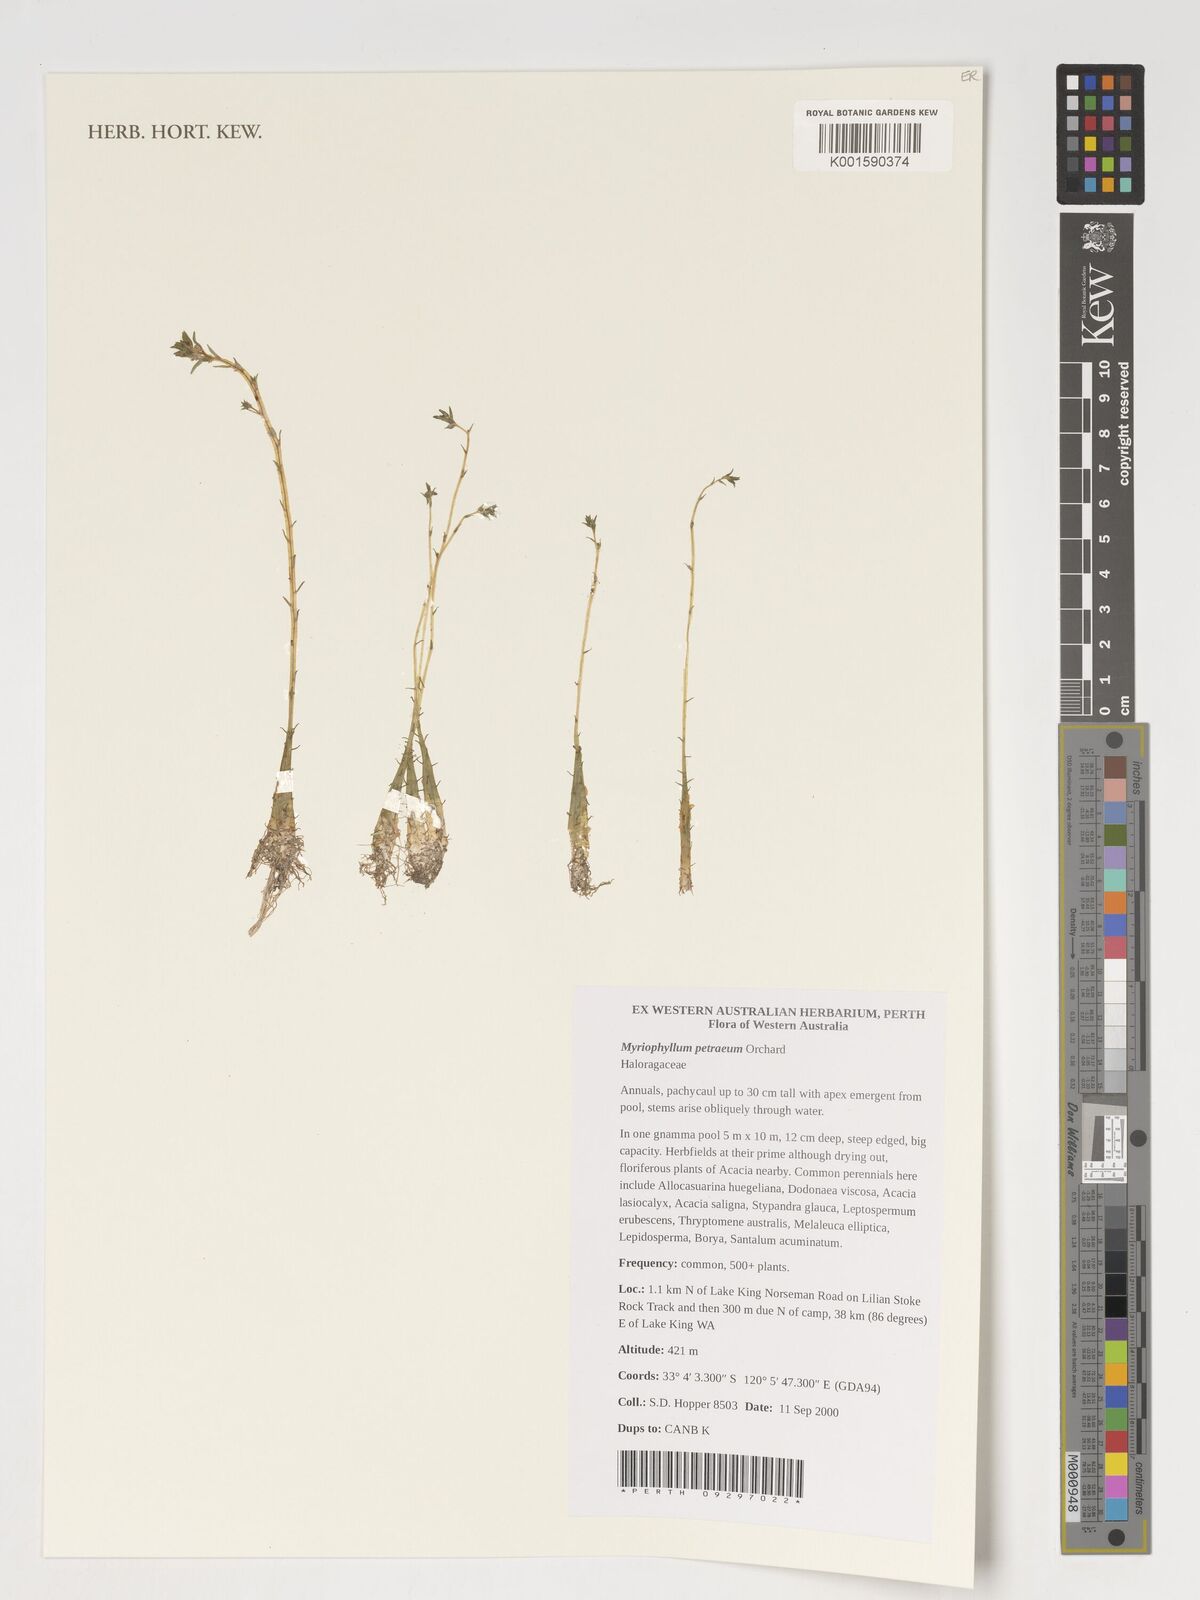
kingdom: Plantae
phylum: Tracheophyta
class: Magnoliopsida
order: Saxifragales
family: Haloragaceae
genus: Myriophyllum
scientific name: Myriophyllum petraeum
